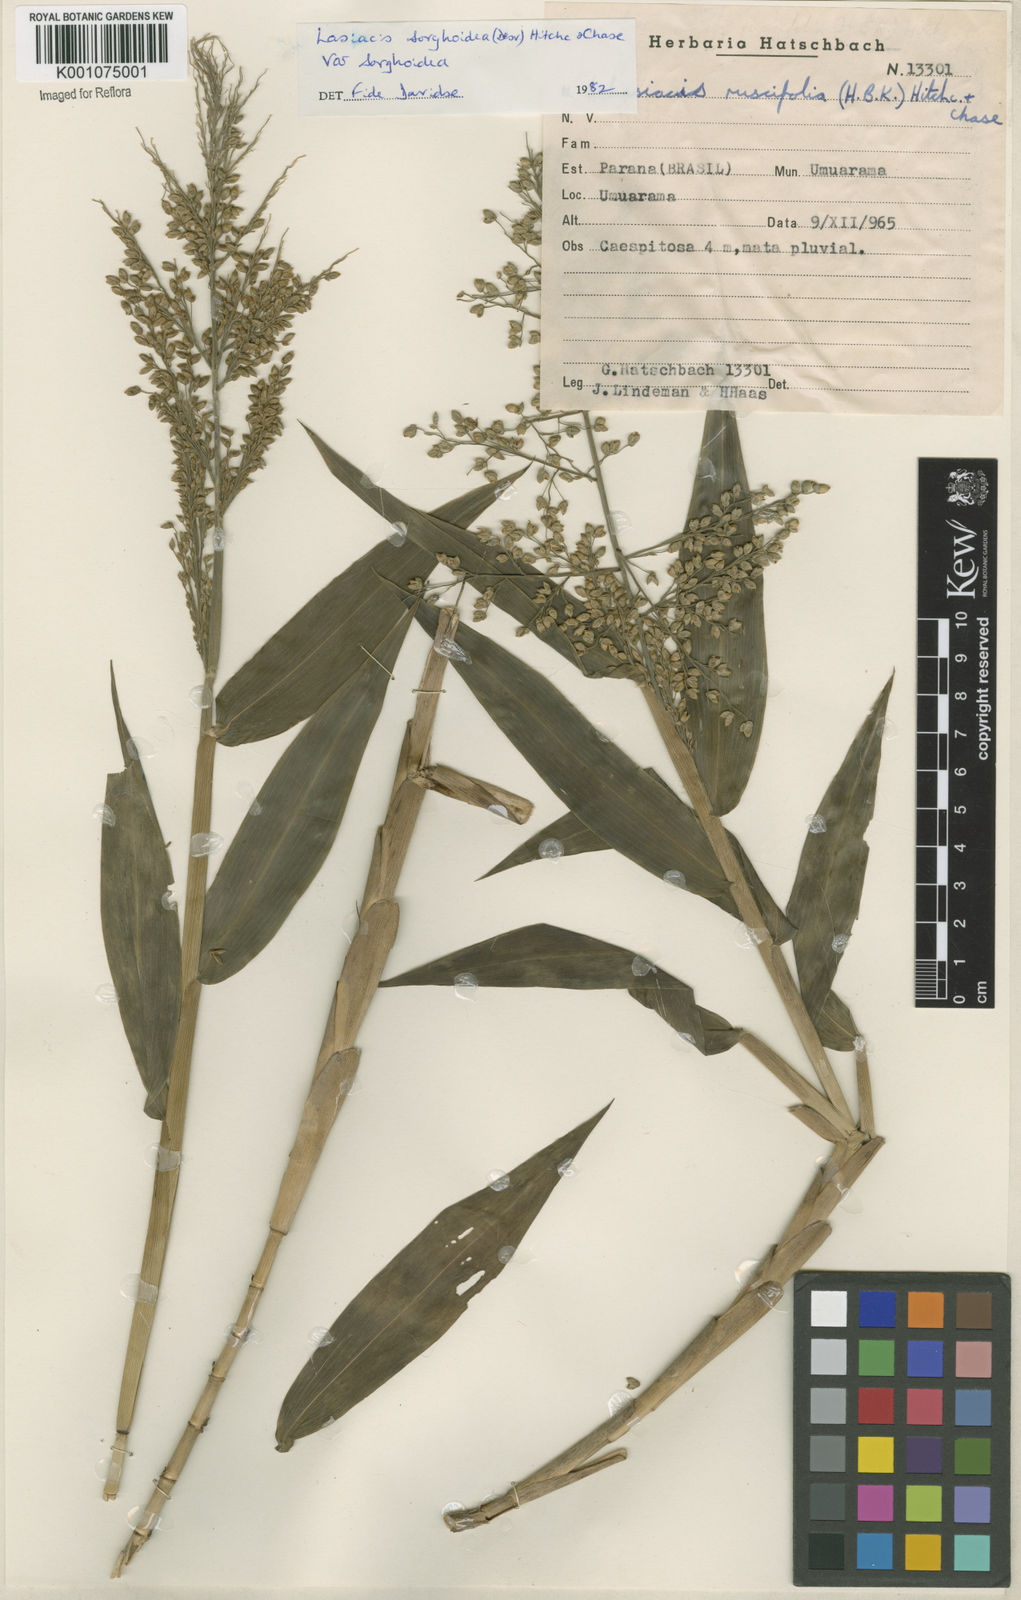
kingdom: Plantae
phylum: Tracheophyta
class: Liliopsida
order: Poales
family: Poaceae
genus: Lasiacis
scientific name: Lasiacis maculata
